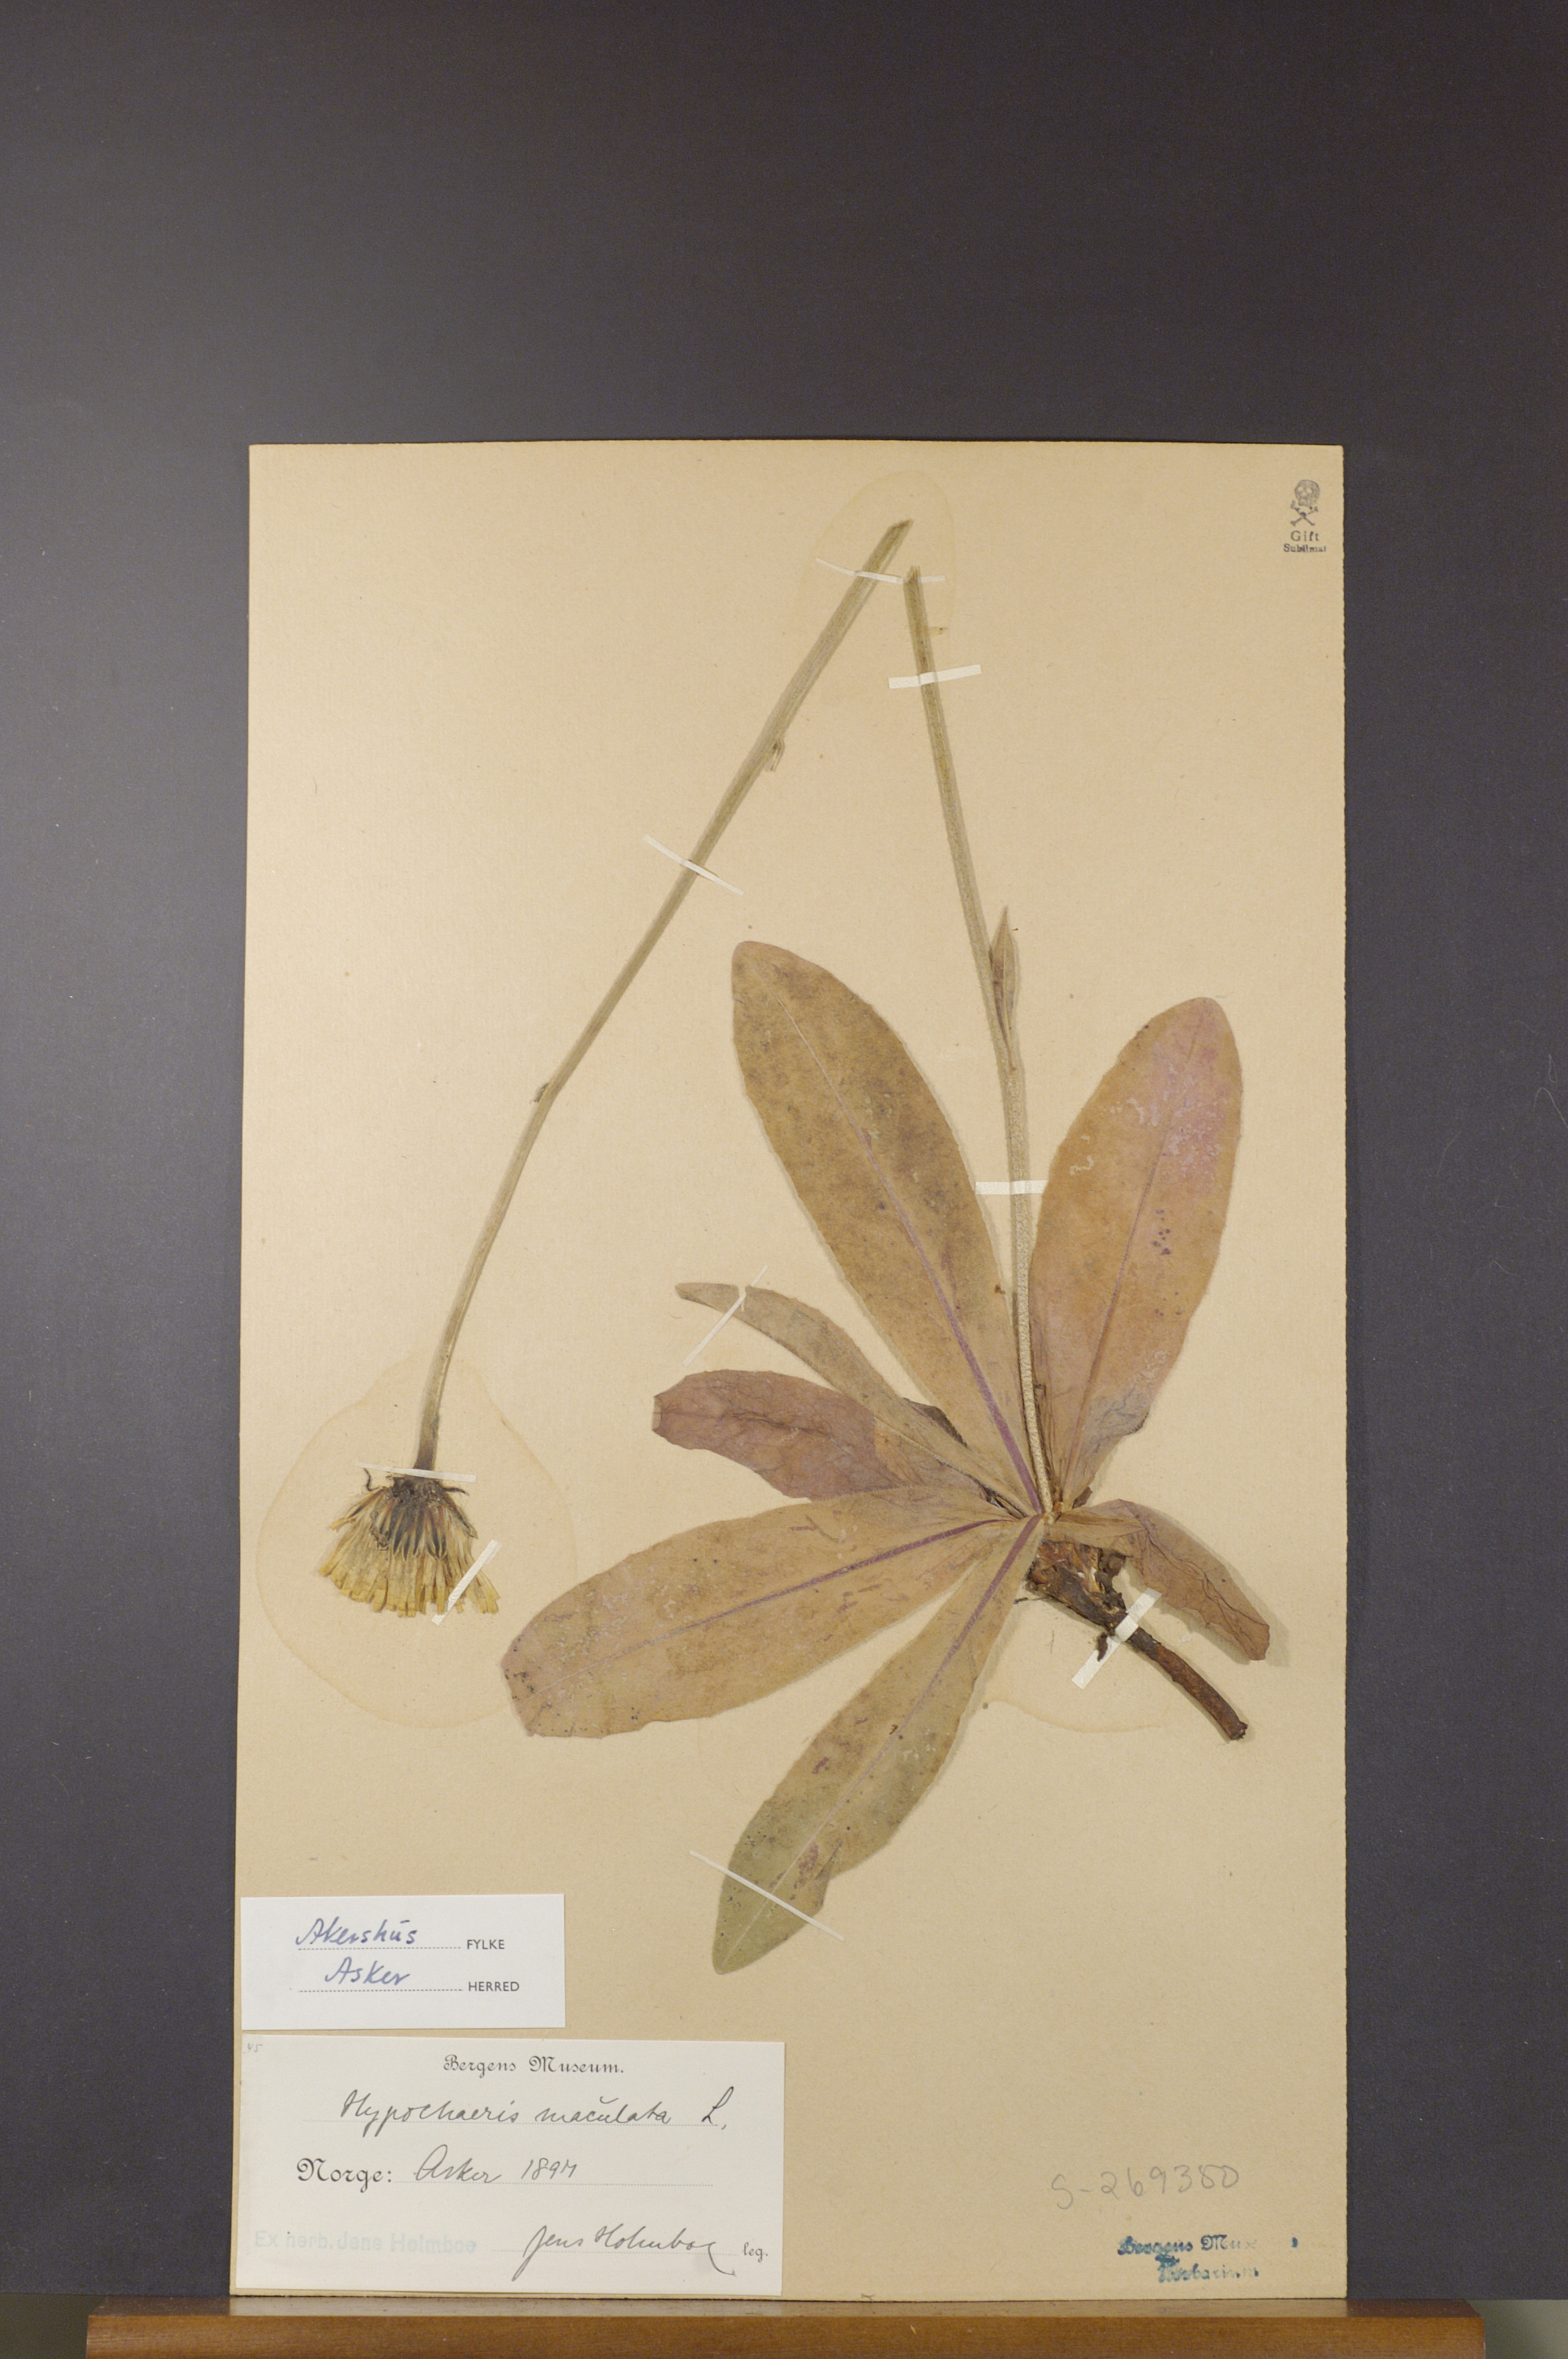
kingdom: Plantae
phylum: Tracheophyta
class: Magnoliopsida
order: Asterales
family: Asteraceae
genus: Trommsdorffia
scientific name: Trommsdorffia maculata
